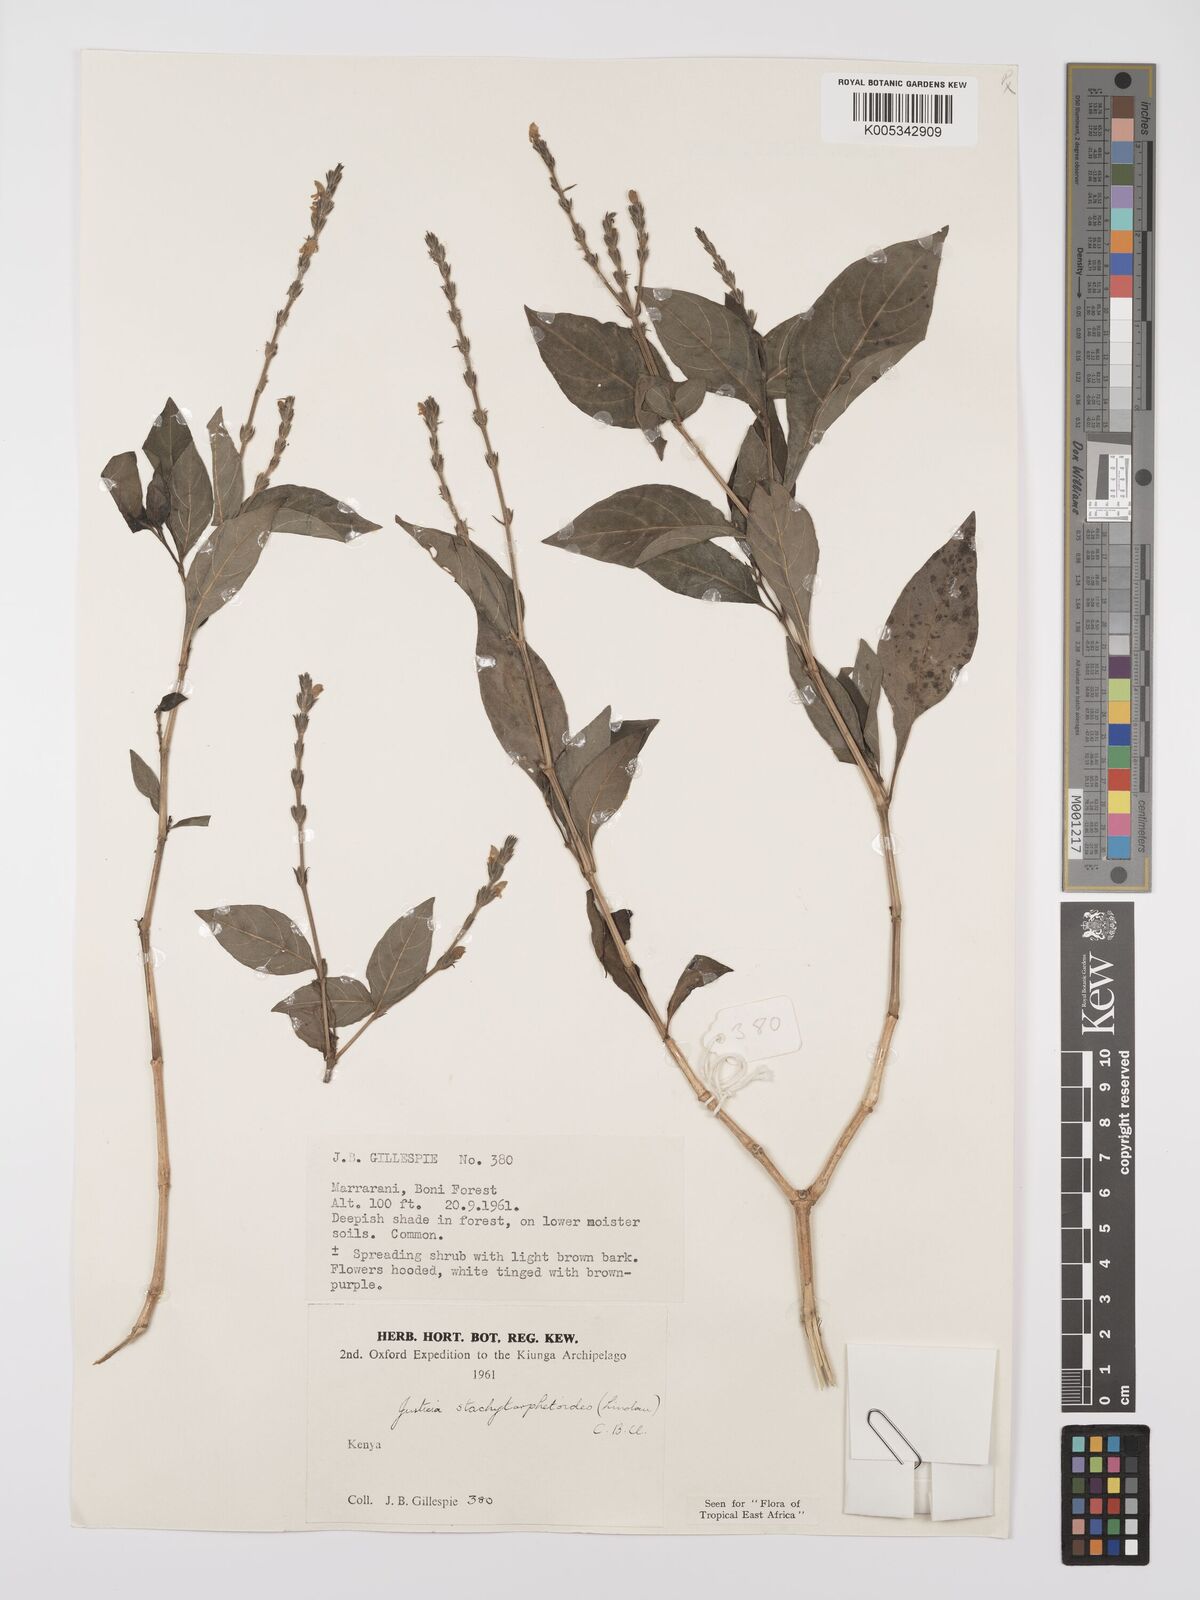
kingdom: Plantae
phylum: Tracheophyta
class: Magnoliopsida
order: Lamiales
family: Acanthaceae
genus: Justicia
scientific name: Justicia stachytarphetoides
